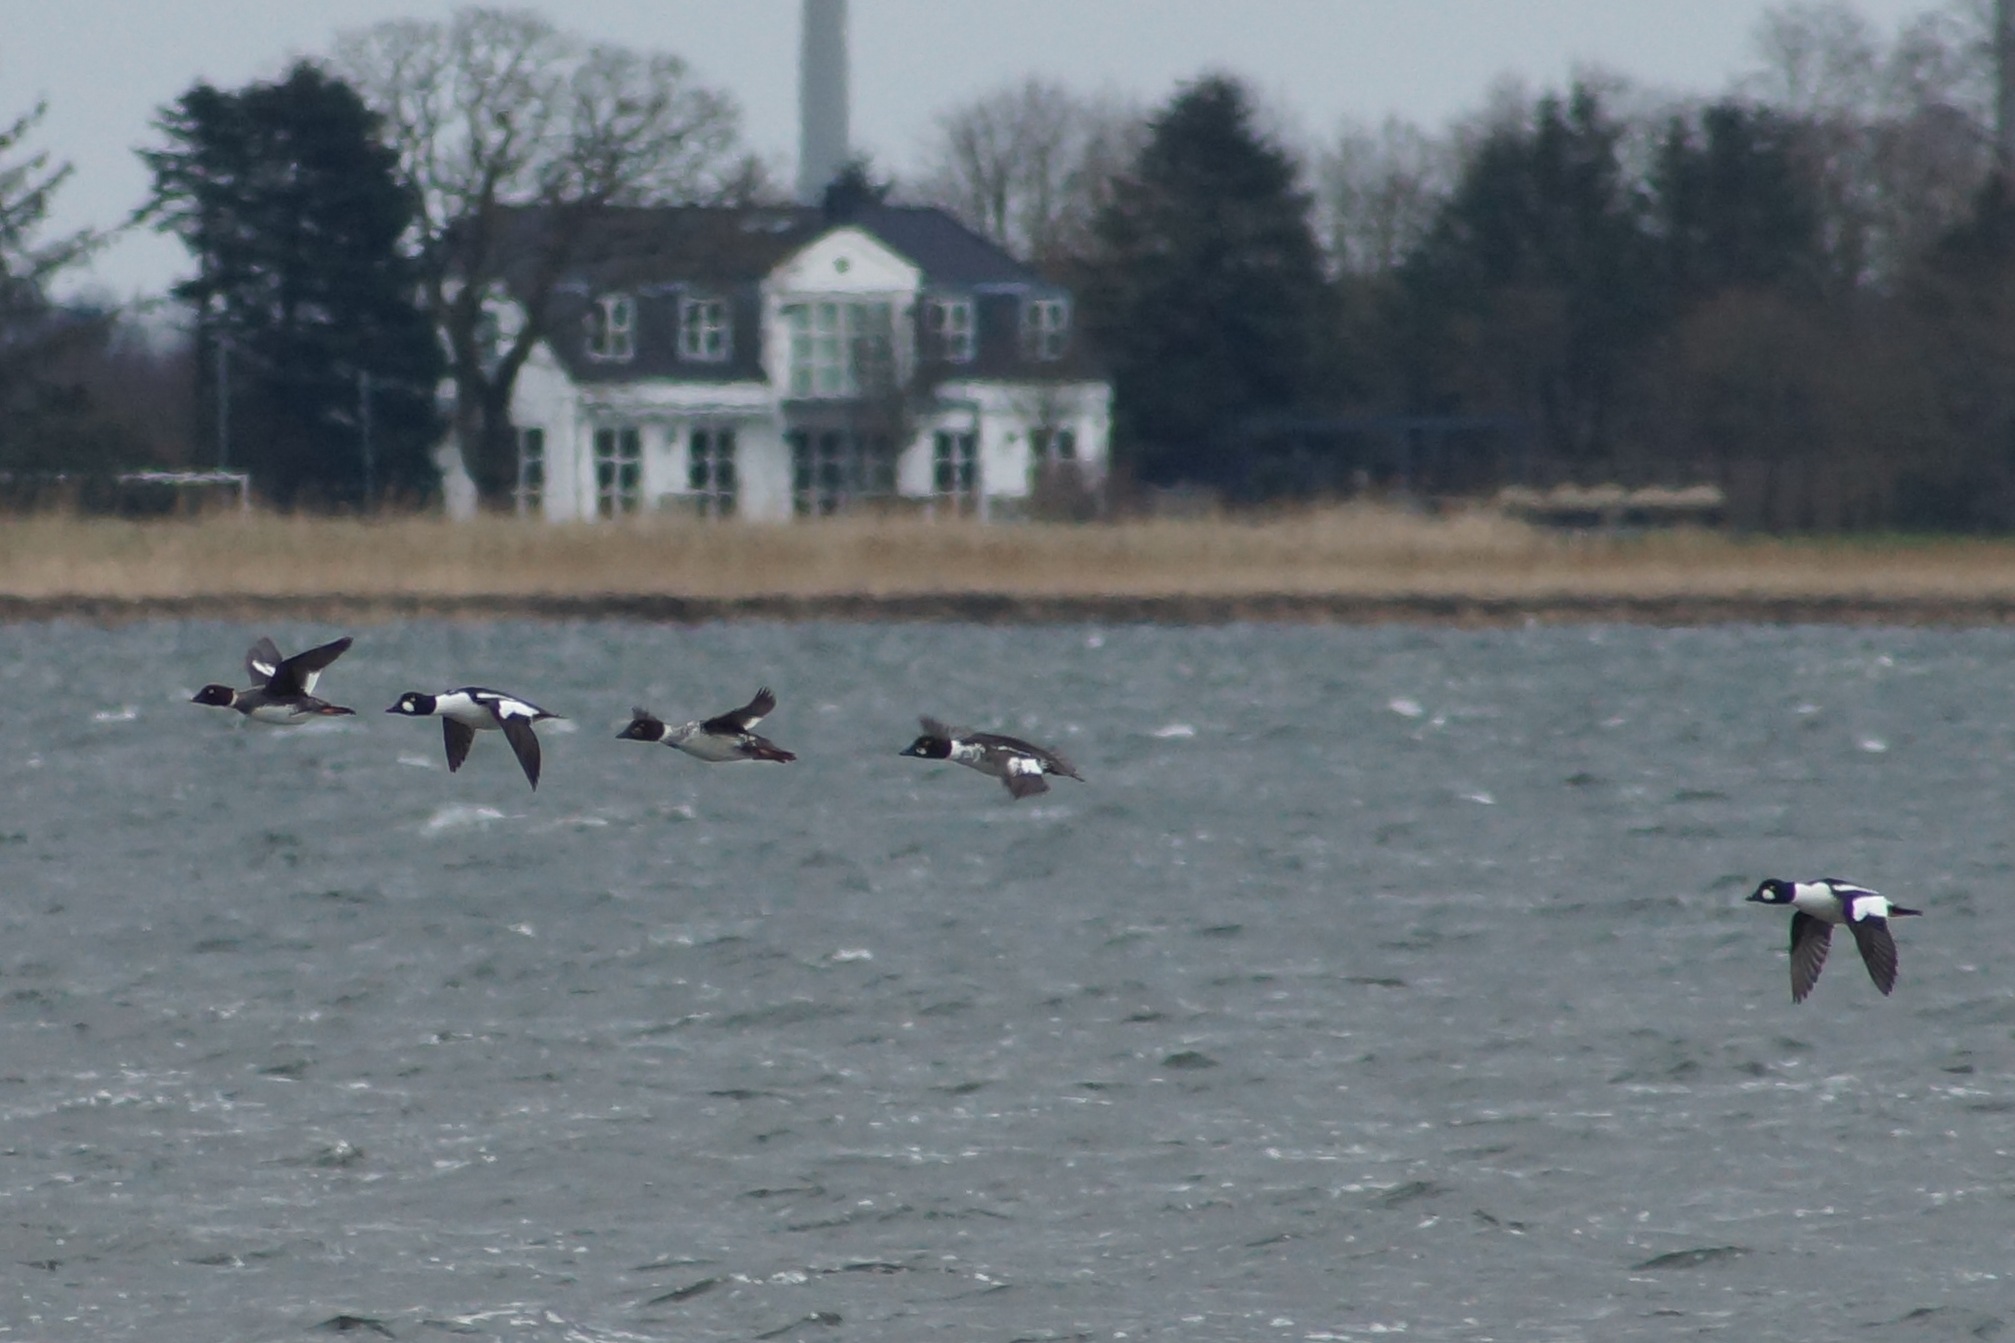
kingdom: Animalia
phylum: Chordata
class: Aves
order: Anseriformes
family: Anatidae
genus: Bucephala
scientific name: Bucephala clangula
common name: Hvinand
